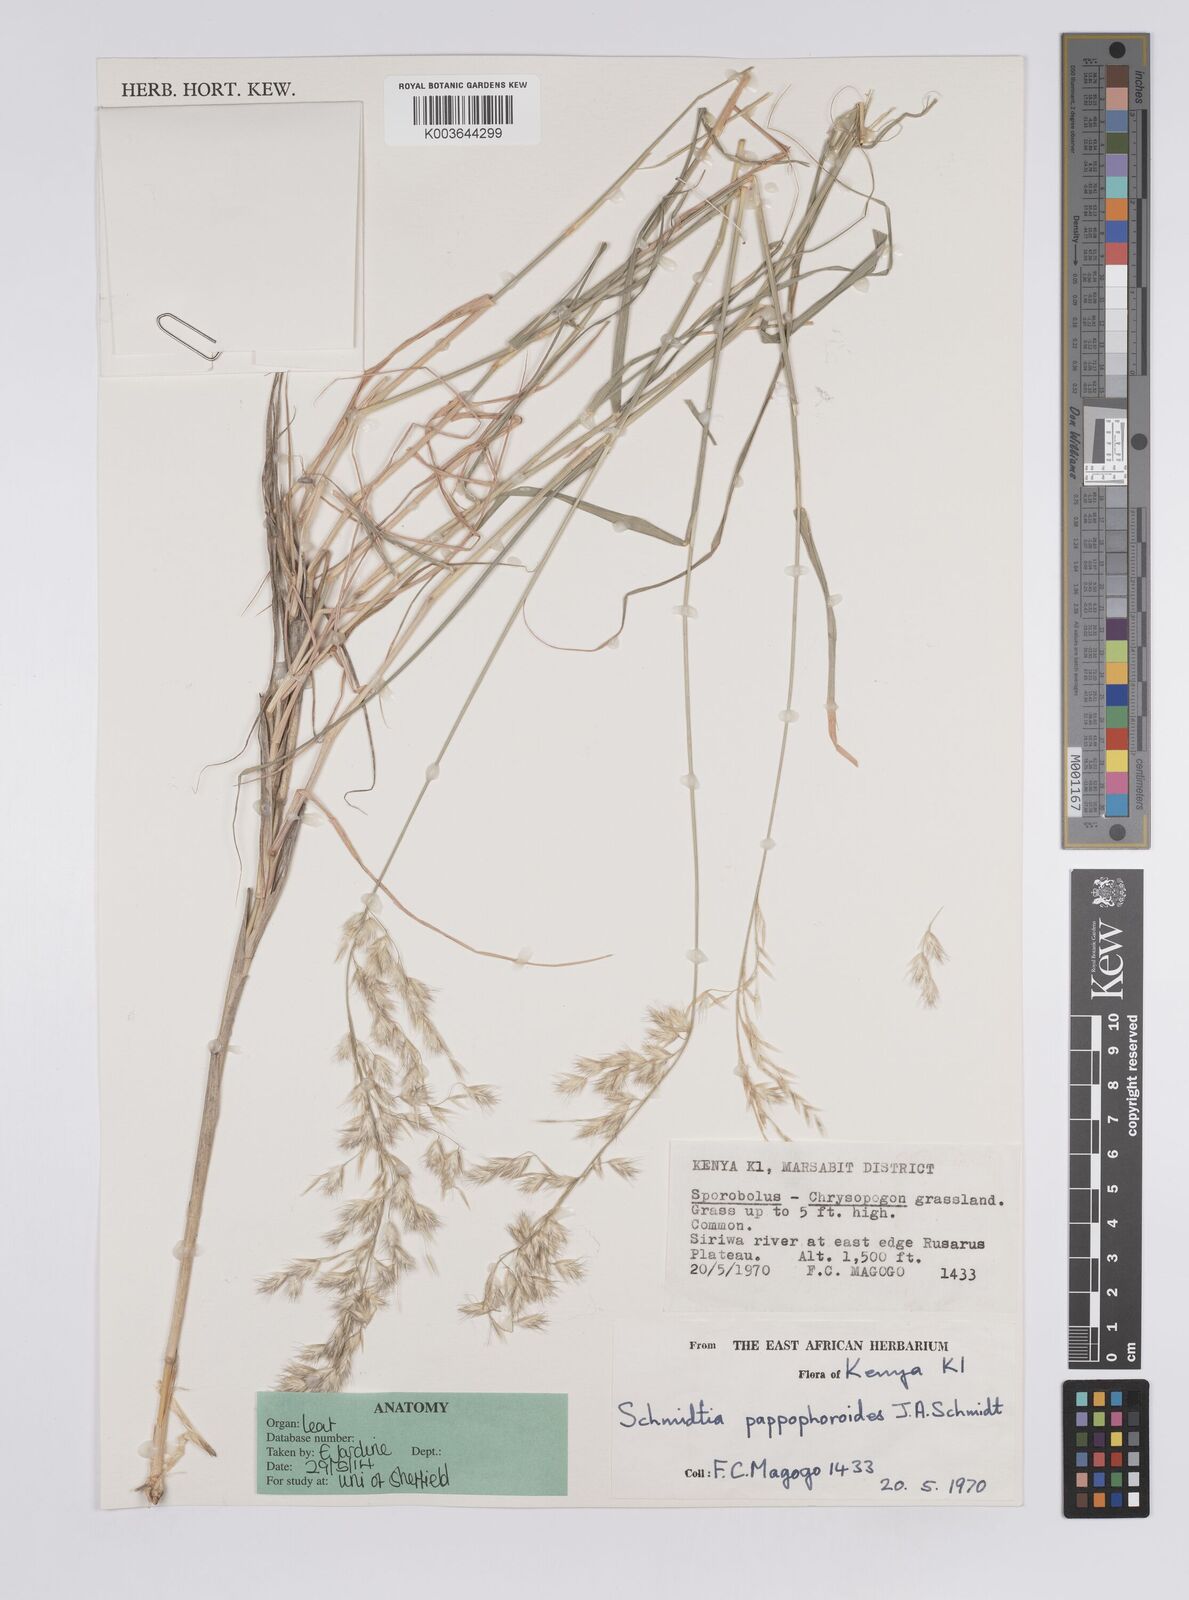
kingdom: Plantae
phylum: Tracheophyta
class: Liliopsida
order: Poales
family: Poaceae
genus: Schmidtia
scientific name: Schmidtia pappophoroides
